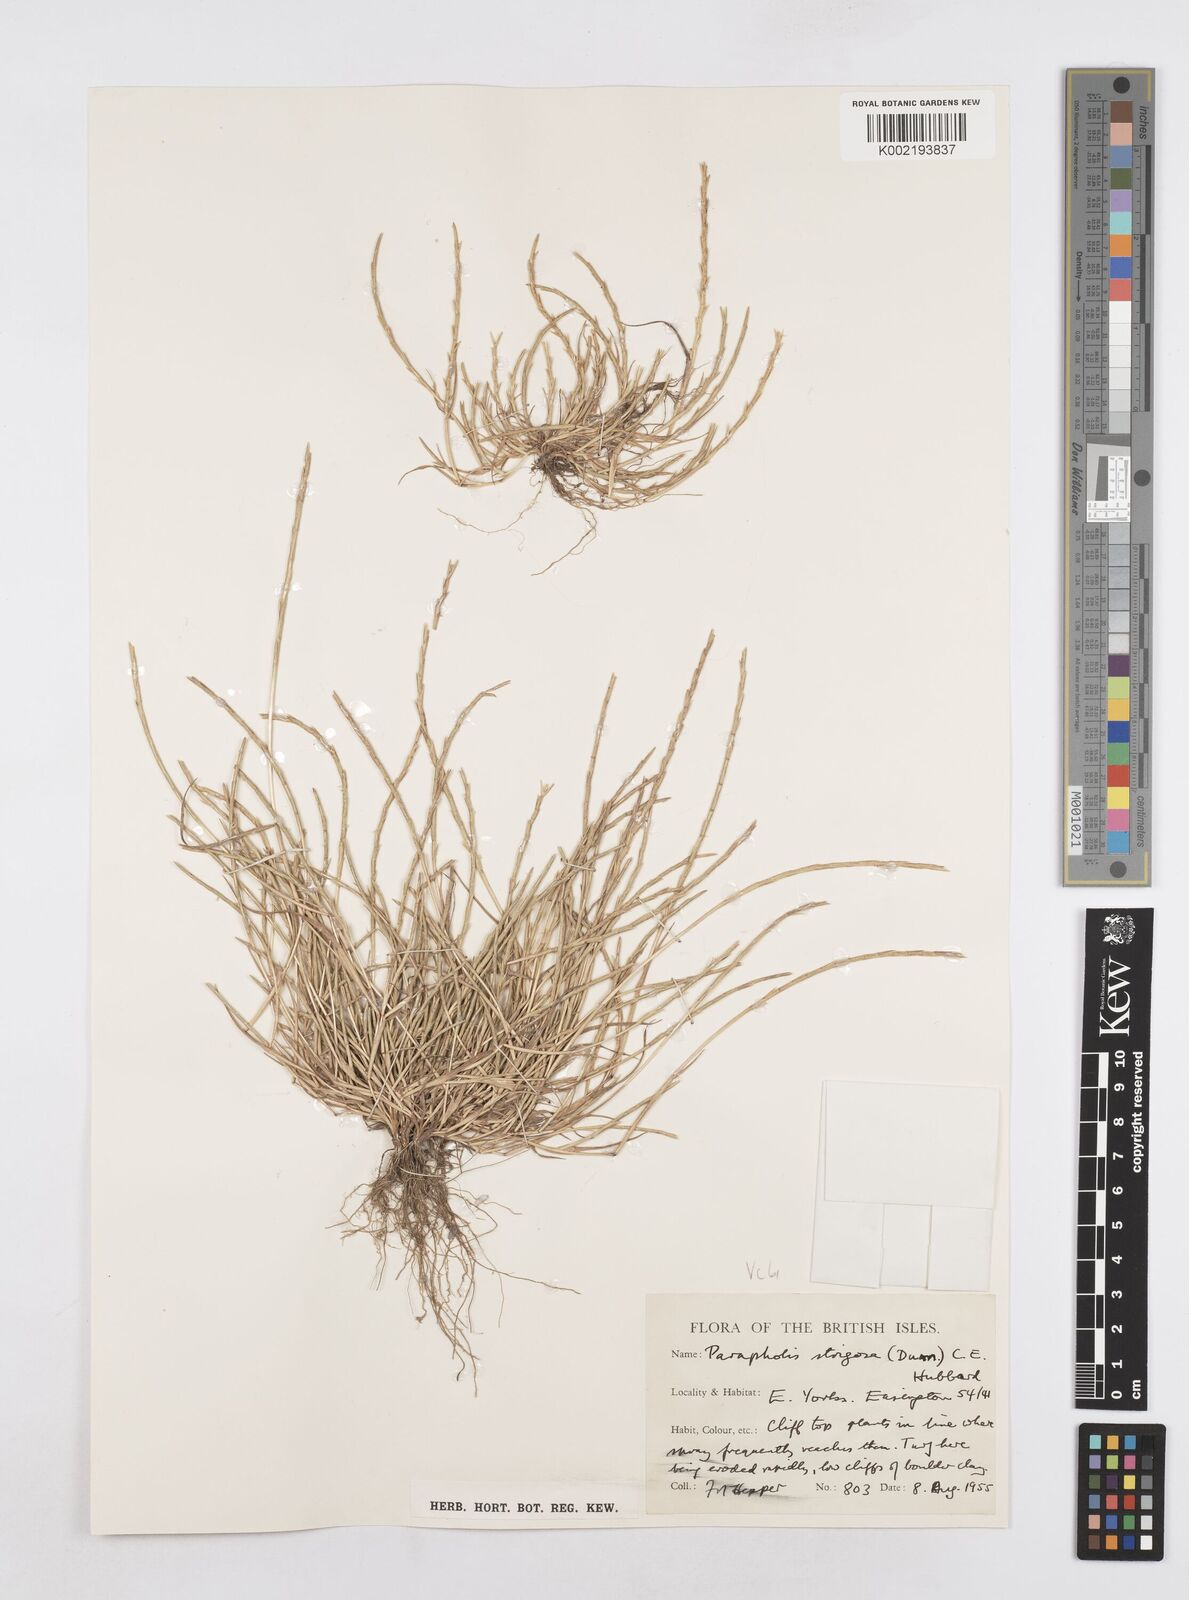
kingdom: Plantae
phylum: Tracheophyta
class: Liliopsida
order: Poales
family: Poaceae
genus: Parapholis
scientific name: Parapholis strigosa
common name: Hard-grass
